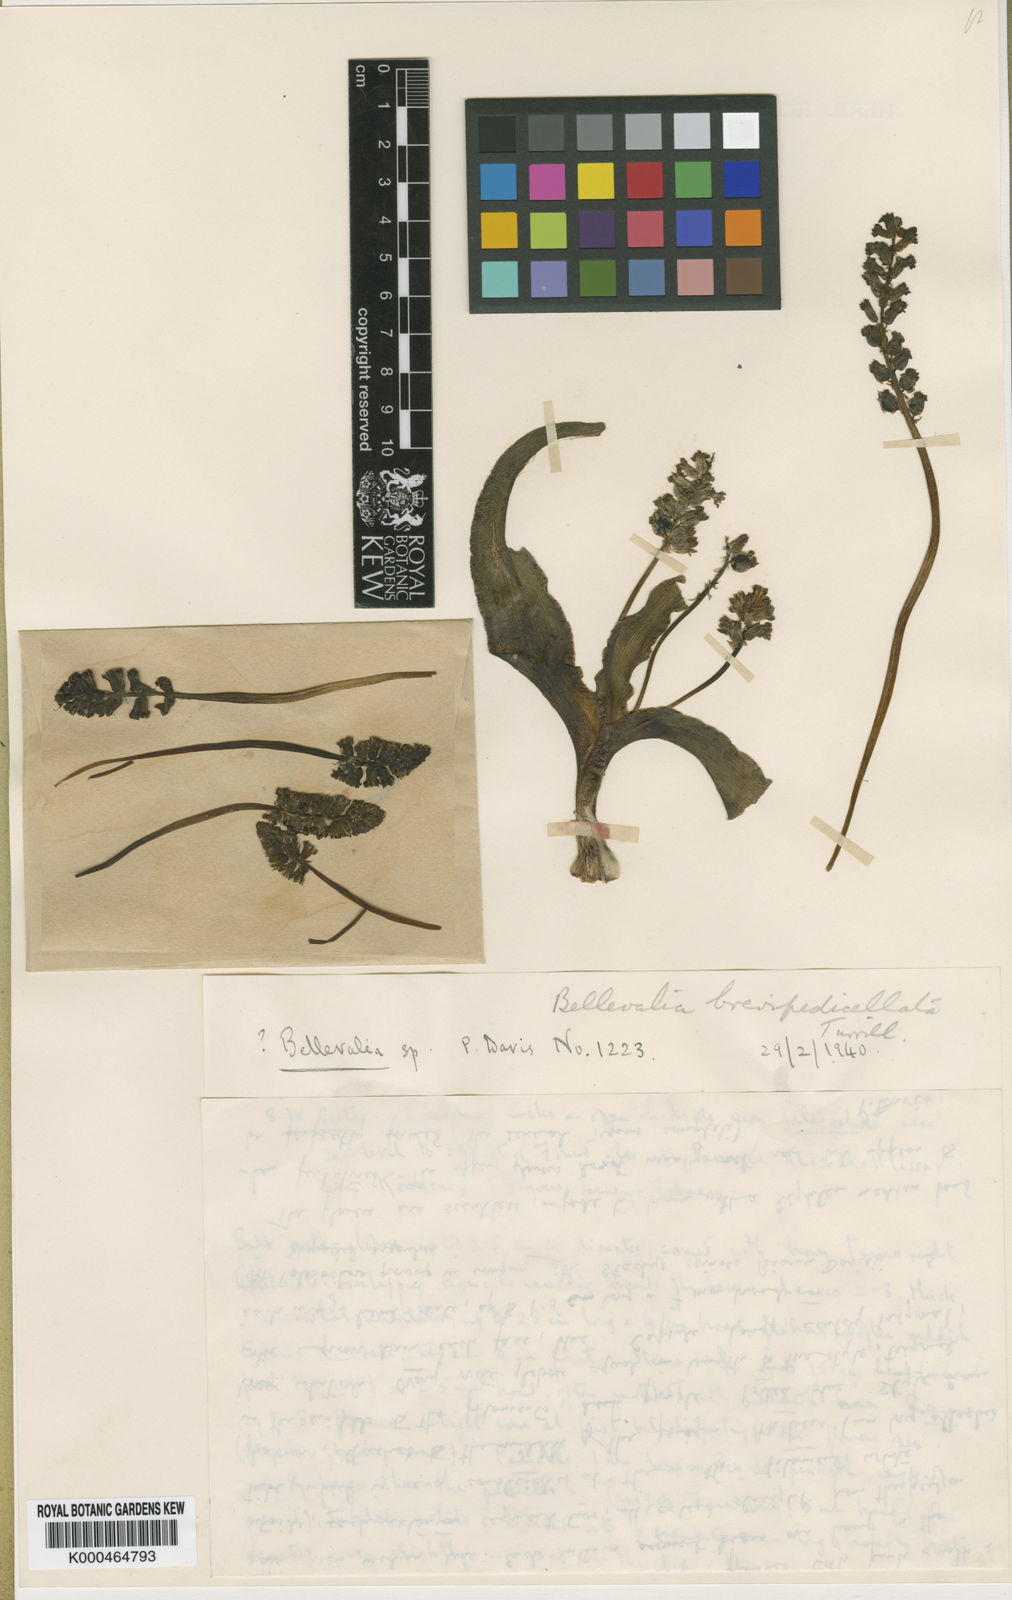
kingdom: Plantae
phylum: Tracheophyta
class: Liliopsida
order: Asparagales
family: Asparagaceae
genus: Bellevalia
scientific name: Bellevalia brevipedicellata
